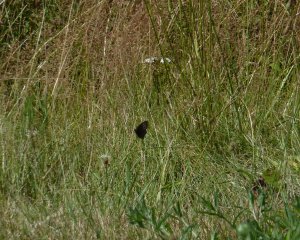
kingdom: Animalia
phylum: Arthropoda
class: Insecta
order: Lepidoptera
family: Nymphalidae
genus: Cercyonis
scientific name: Cercyonis pegala
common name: Common Wood-Nymph
